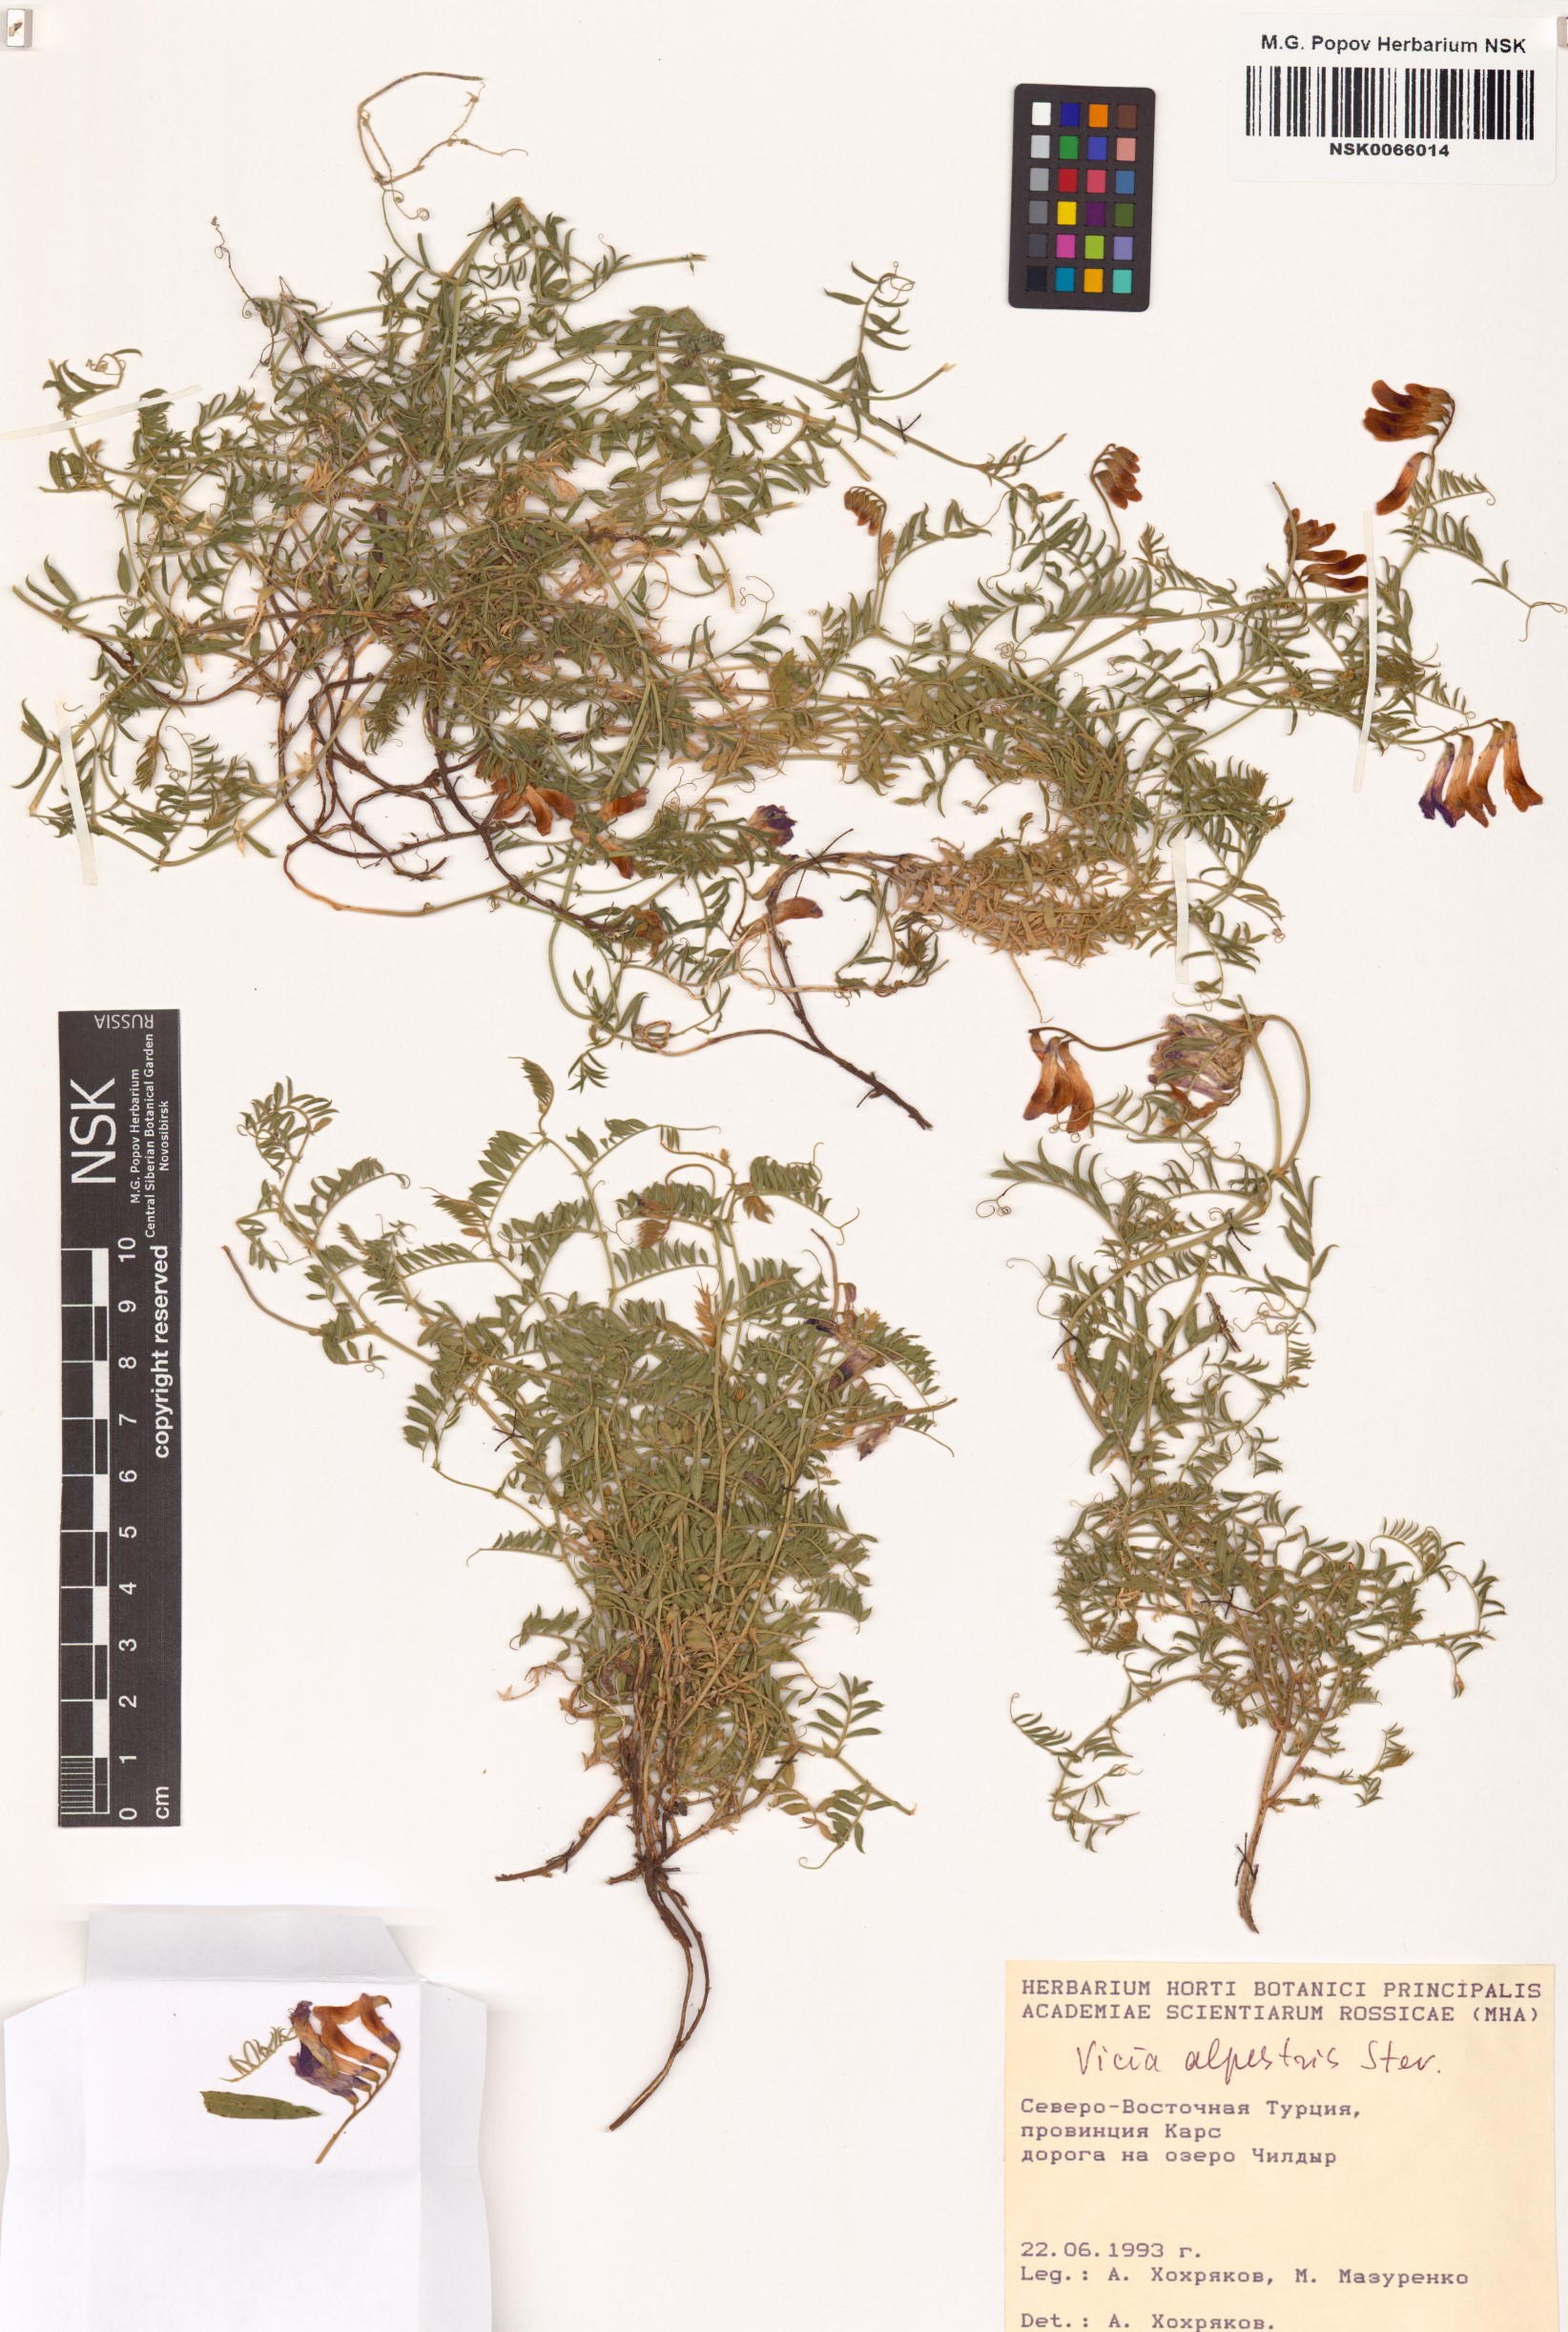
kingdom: Plantae
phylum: Tracheophyta
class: Magnoliopsida
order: Fabales
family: Fabaceae
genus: Vicia
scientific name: Vicia alpestris
